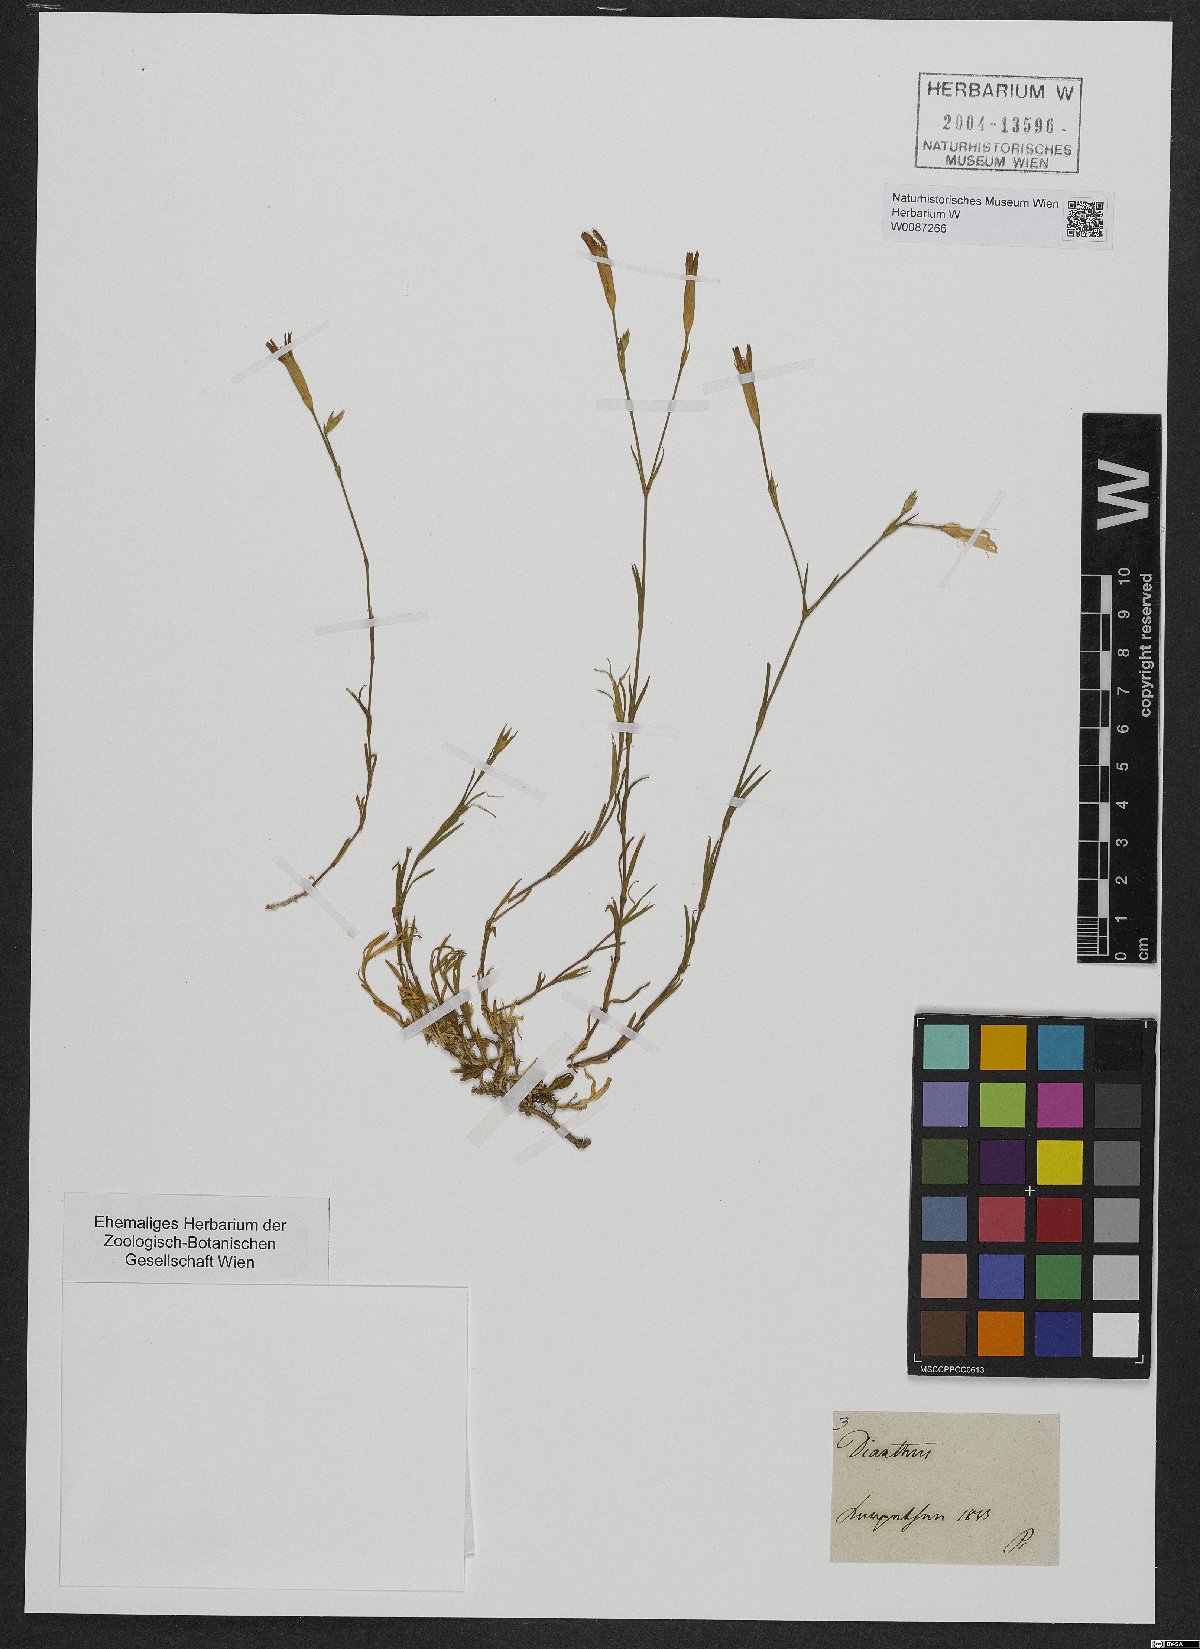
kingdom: Plantae
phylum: Tracheophyta
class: Magnoliopsida
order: Caryophyllales
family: Caryophyllaceae
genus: Dianthus
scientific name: Dianthus
